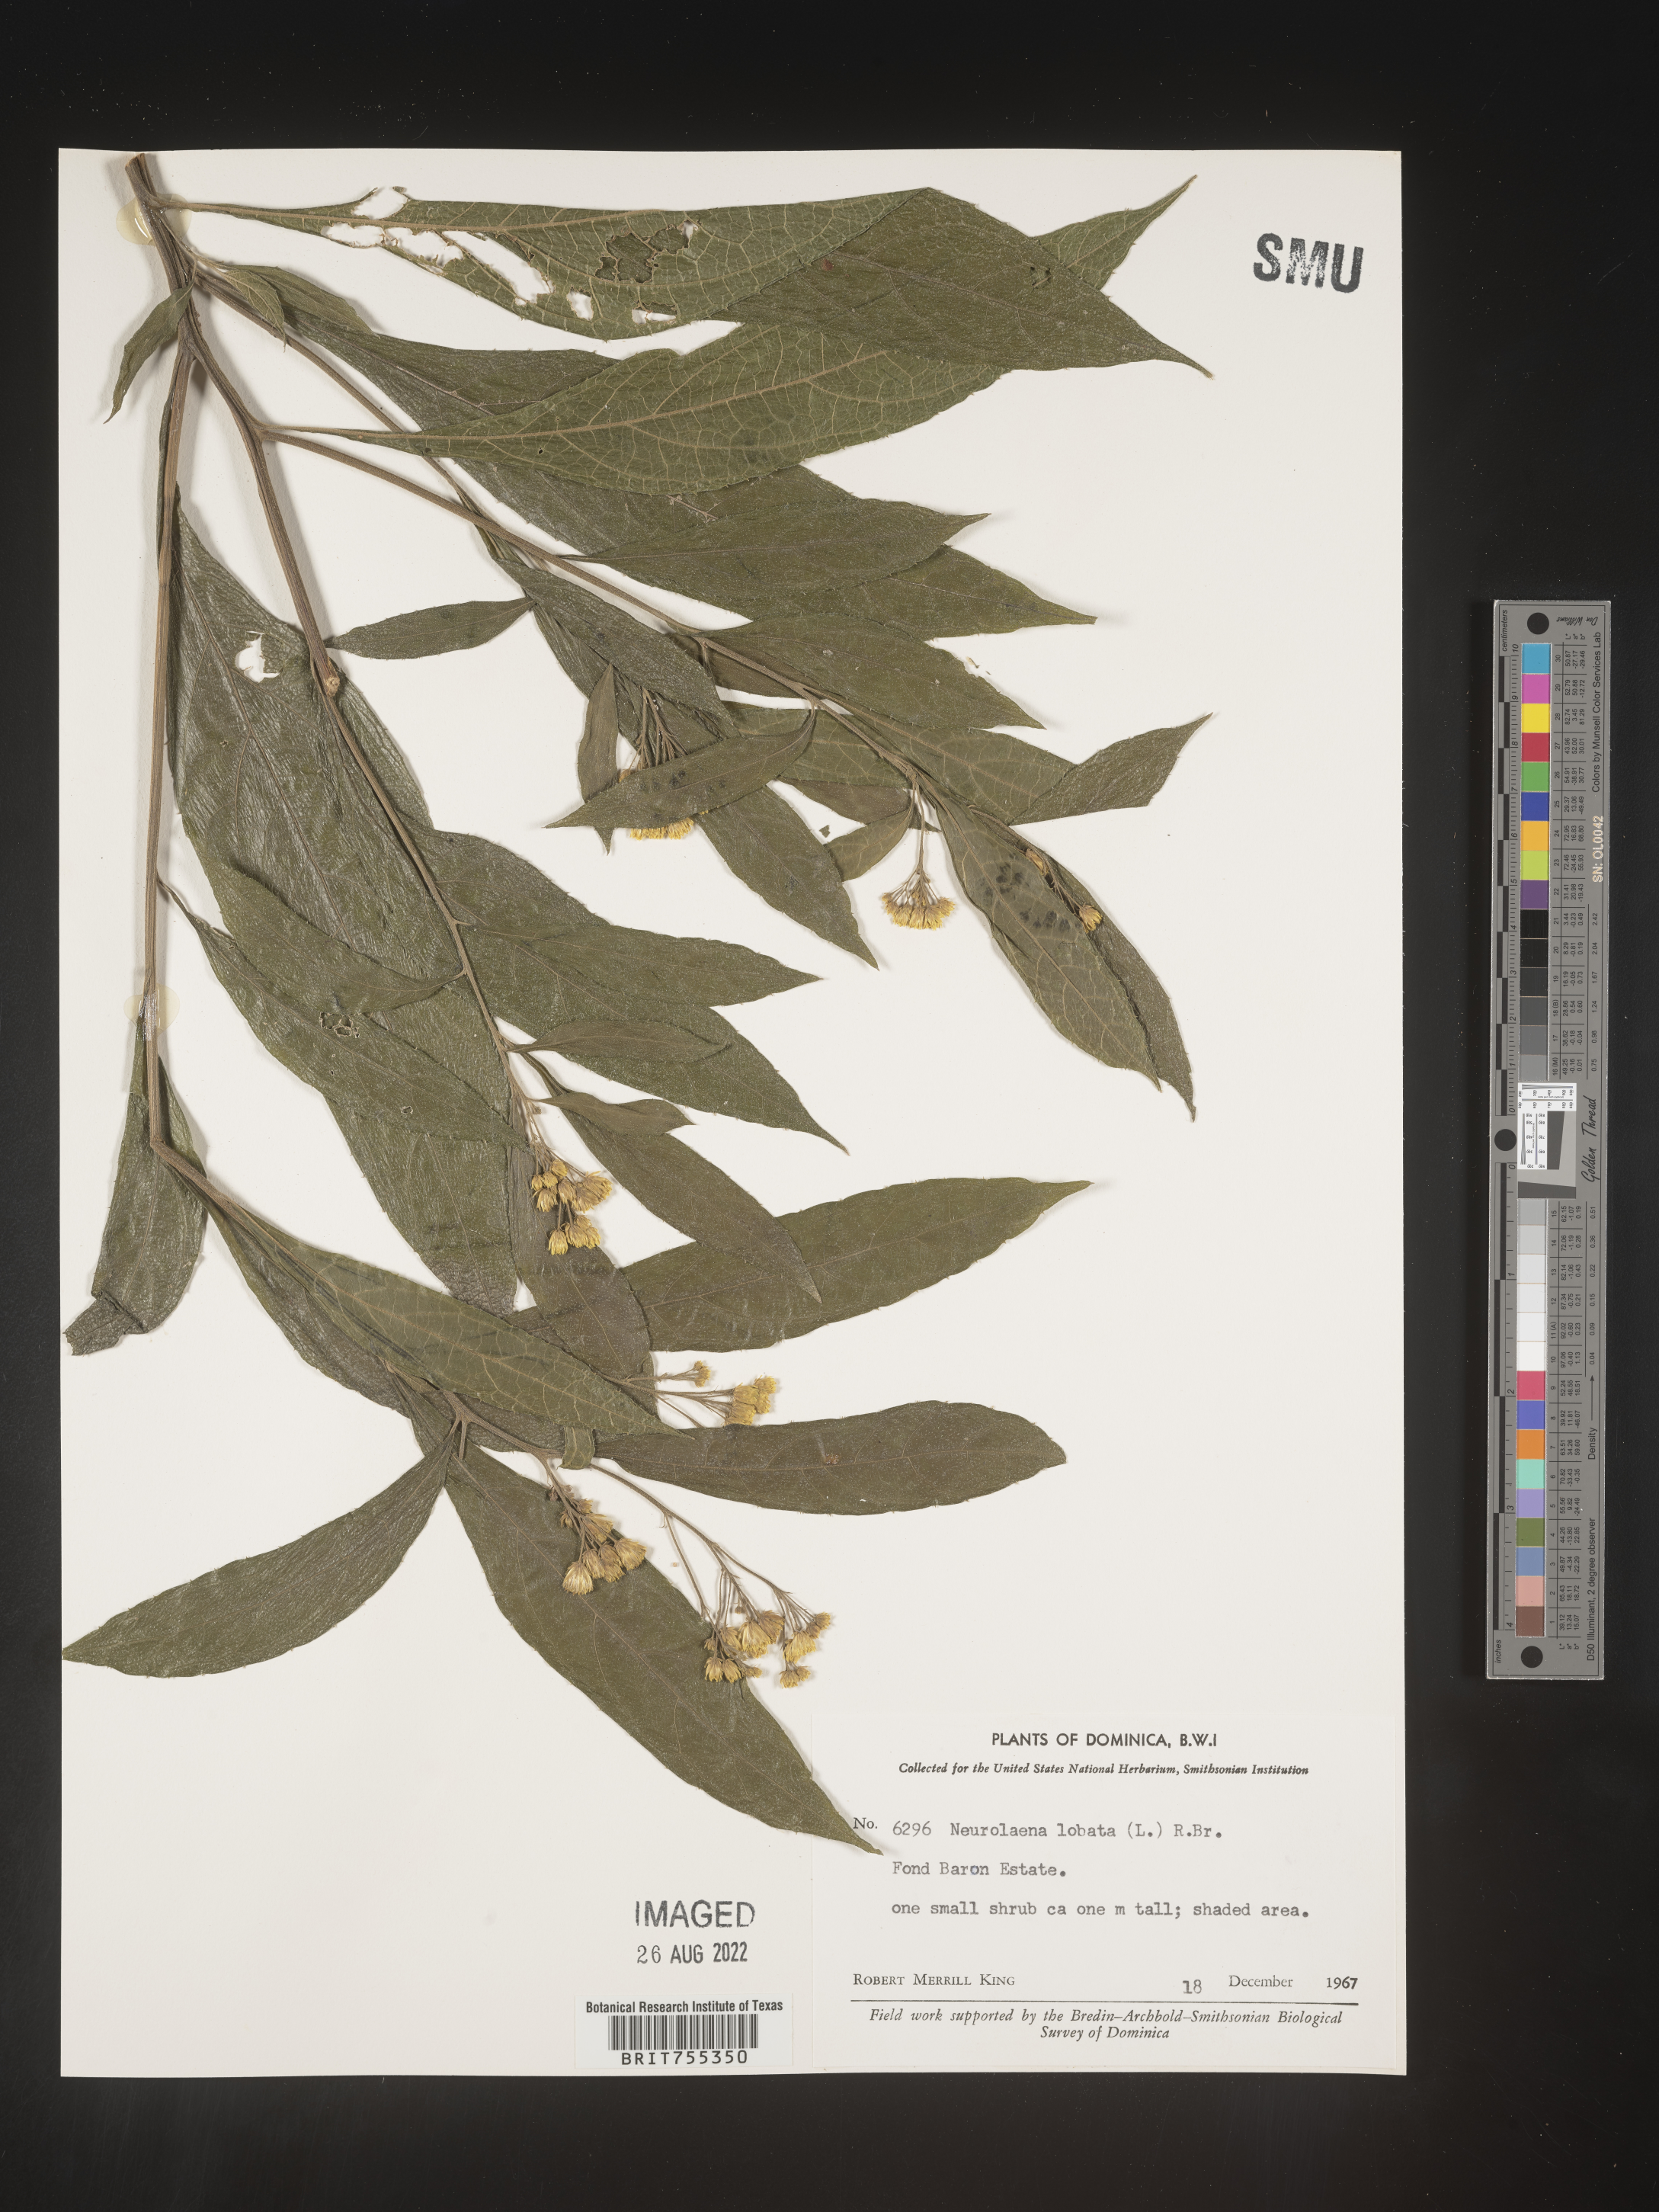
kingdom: Plantae
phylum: Tracheophyta
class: Magnoliopsida
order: Asterales
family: Asteraceae
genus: Neurolaena
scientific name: Neurolaena
